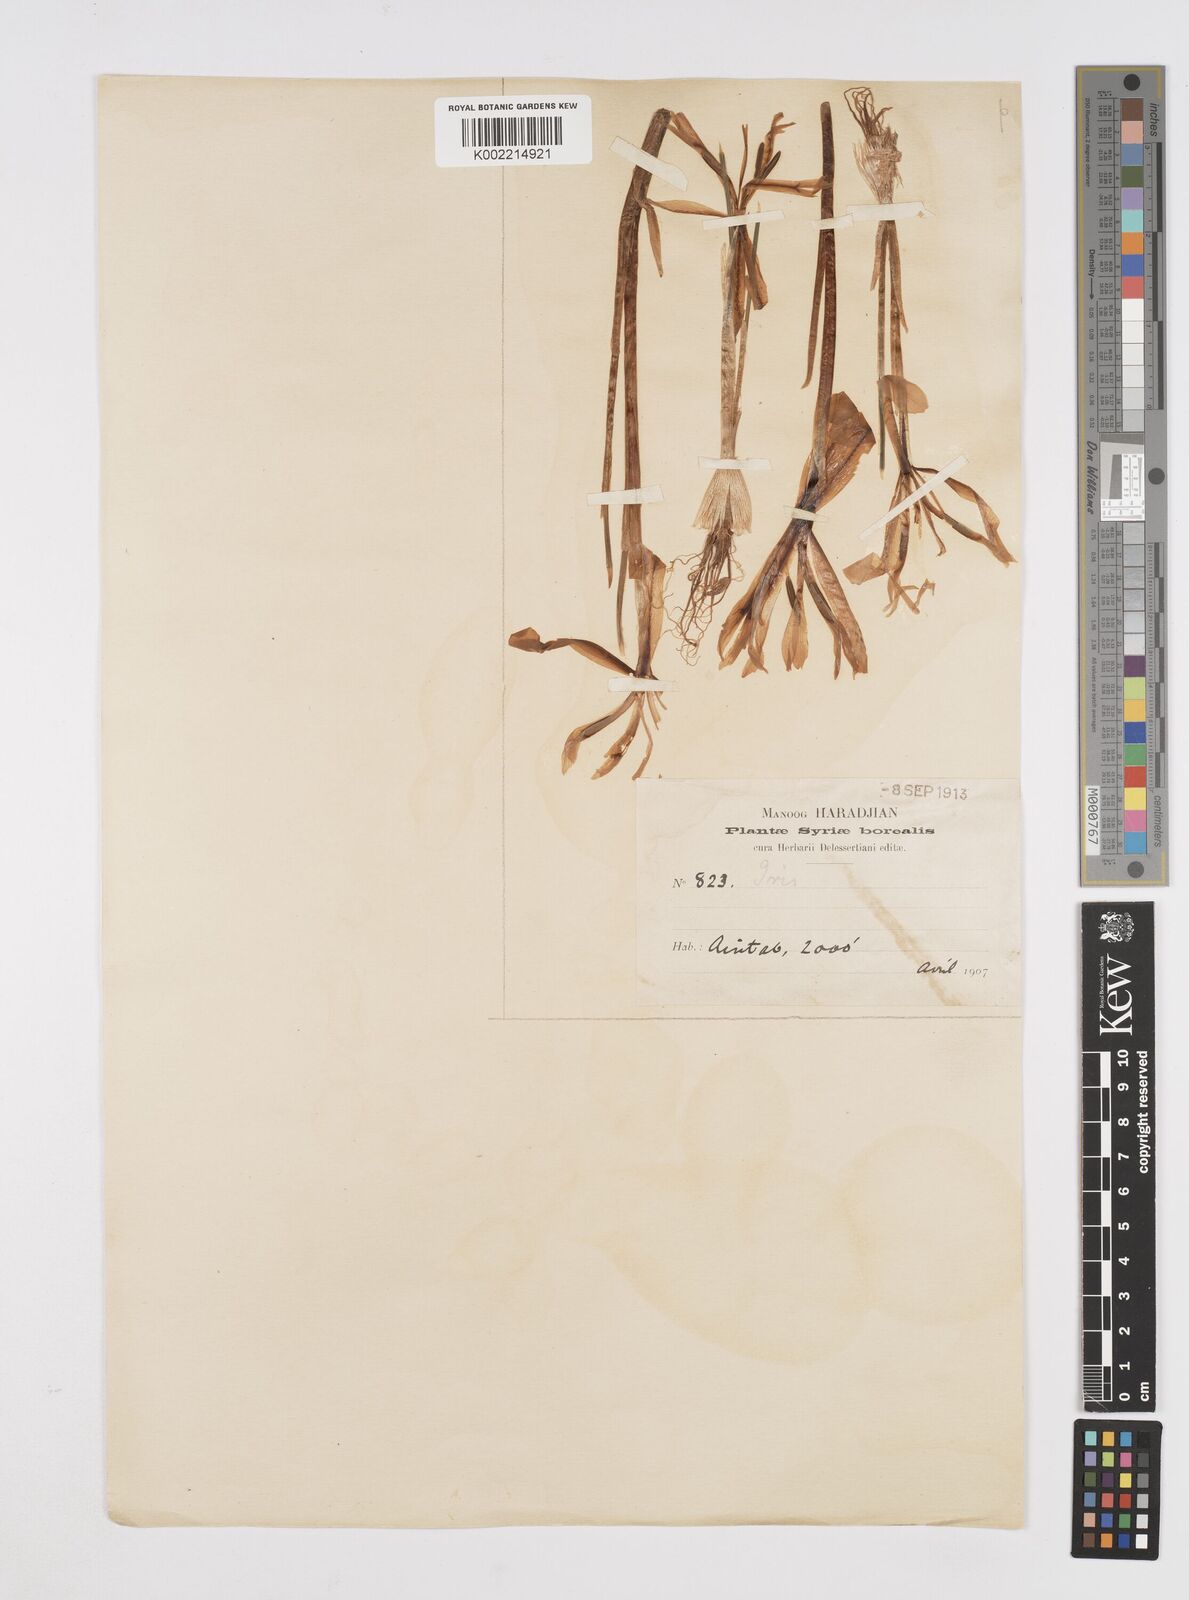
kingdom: Plantae
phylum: Tracheophyta
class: Liliopsida
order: Asparagales
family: Iridaceae
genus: Iris
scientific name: Iris histrio
